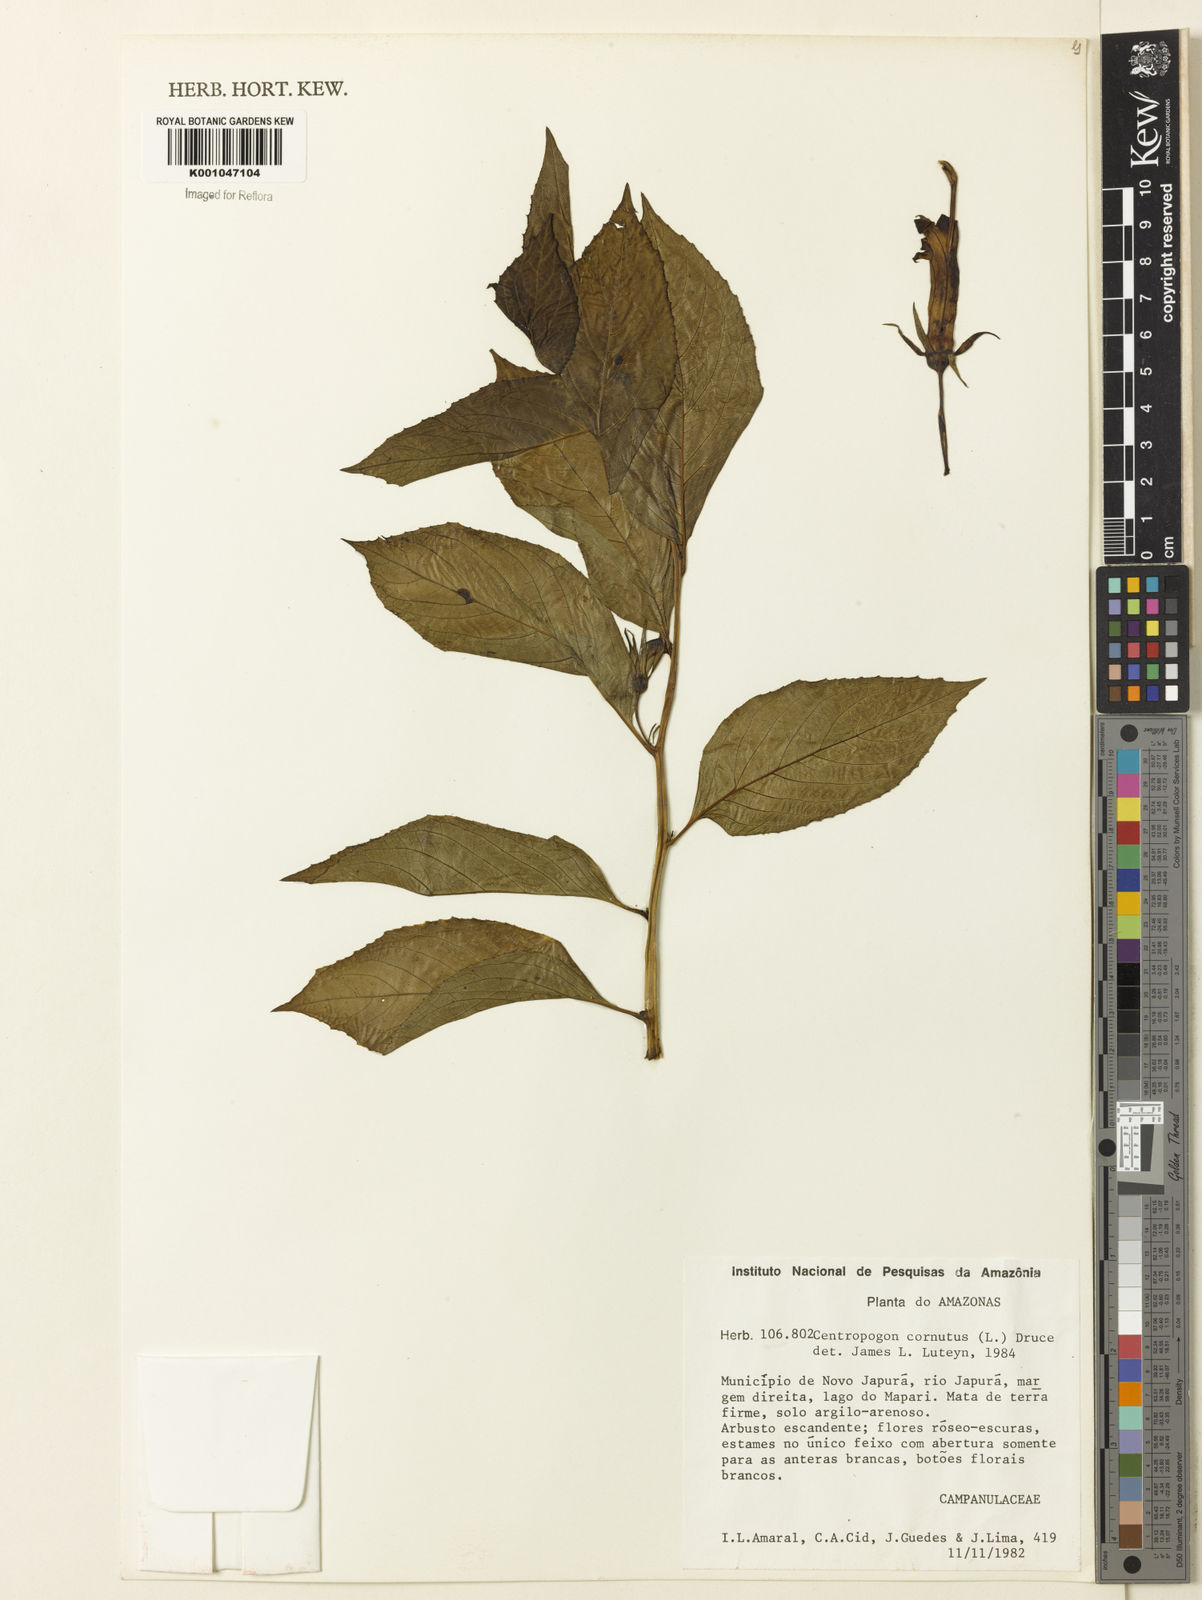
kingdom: Plantae
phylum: Tracheophyta
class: Magnoliopsida
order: Asterales
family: Campanulaceae
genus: Centropogon
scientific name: Centropogon cornutus
